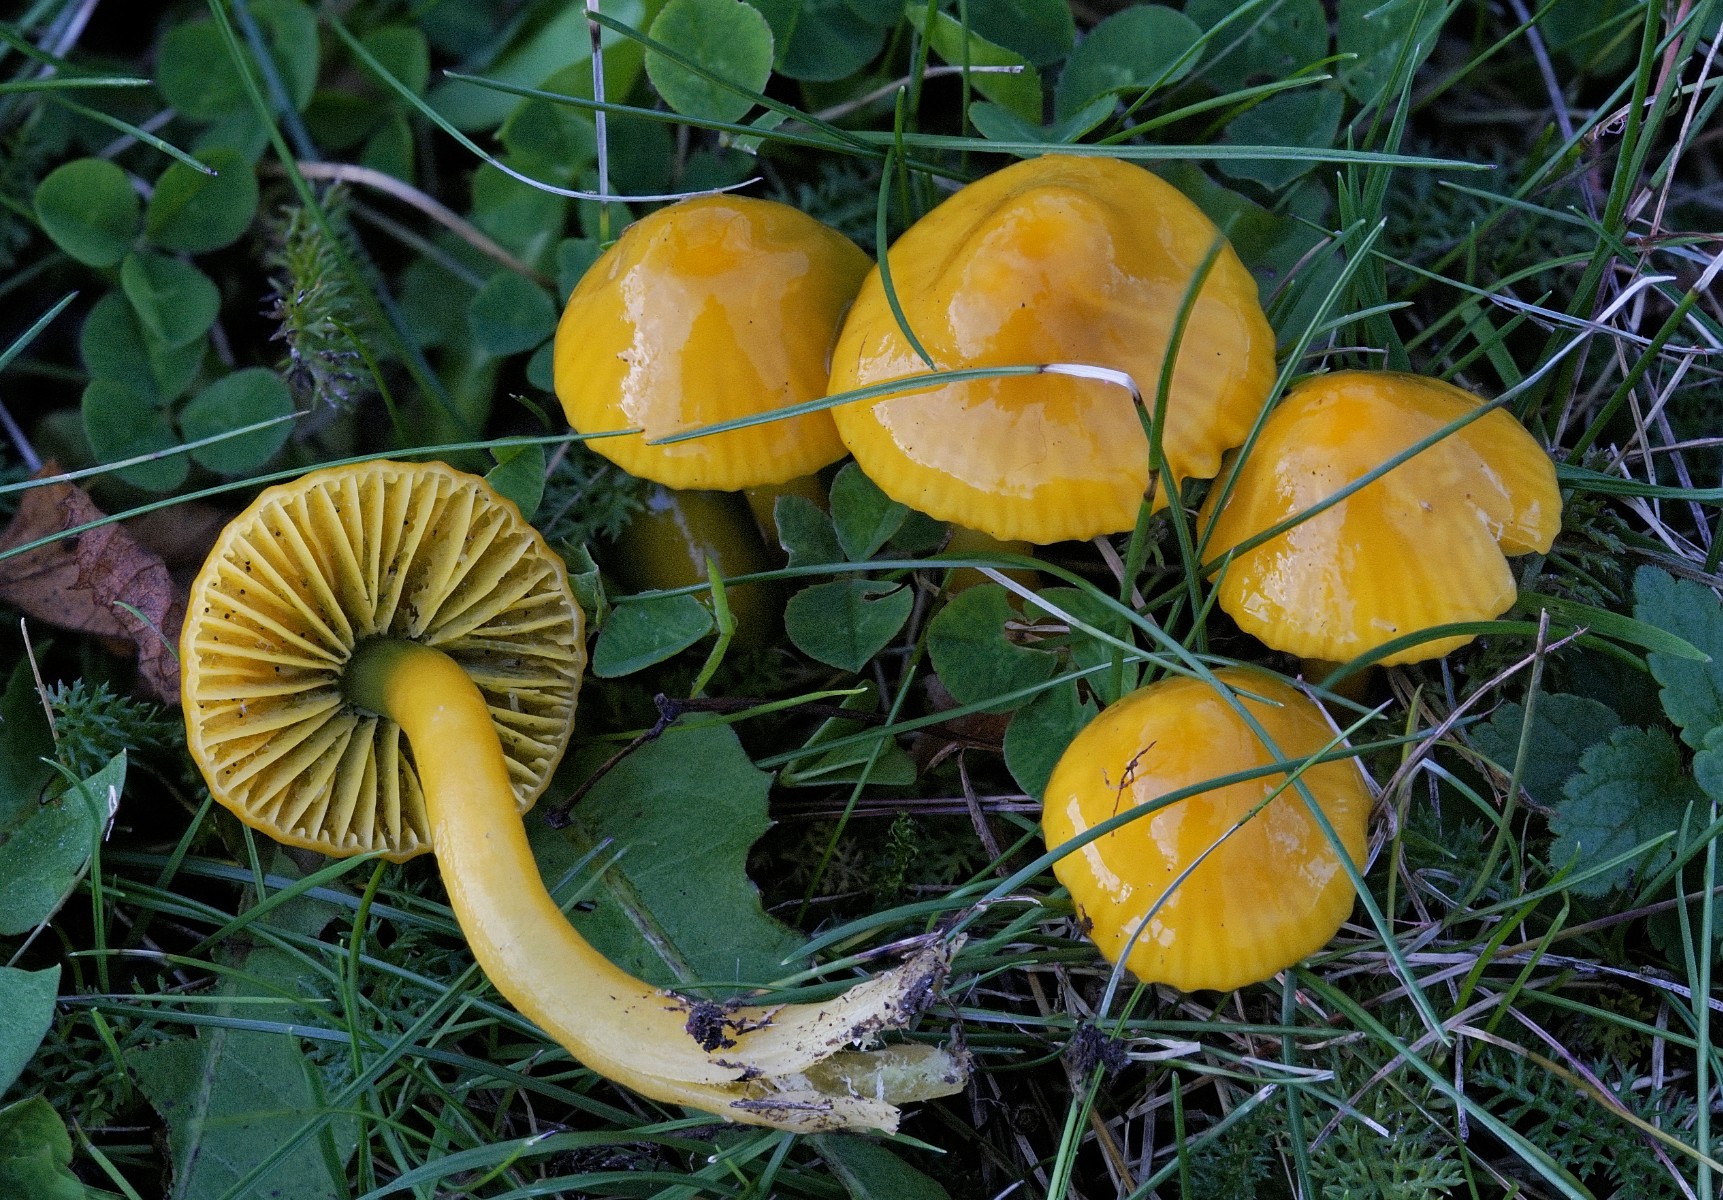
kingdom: Fungi
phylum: Basidiomycota
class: Agaricomycetes
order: Agaricales
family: Hygrophoraceae
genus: Gliophorus
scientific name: Gliophorus psittacinus
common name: papegøje-vokshat
